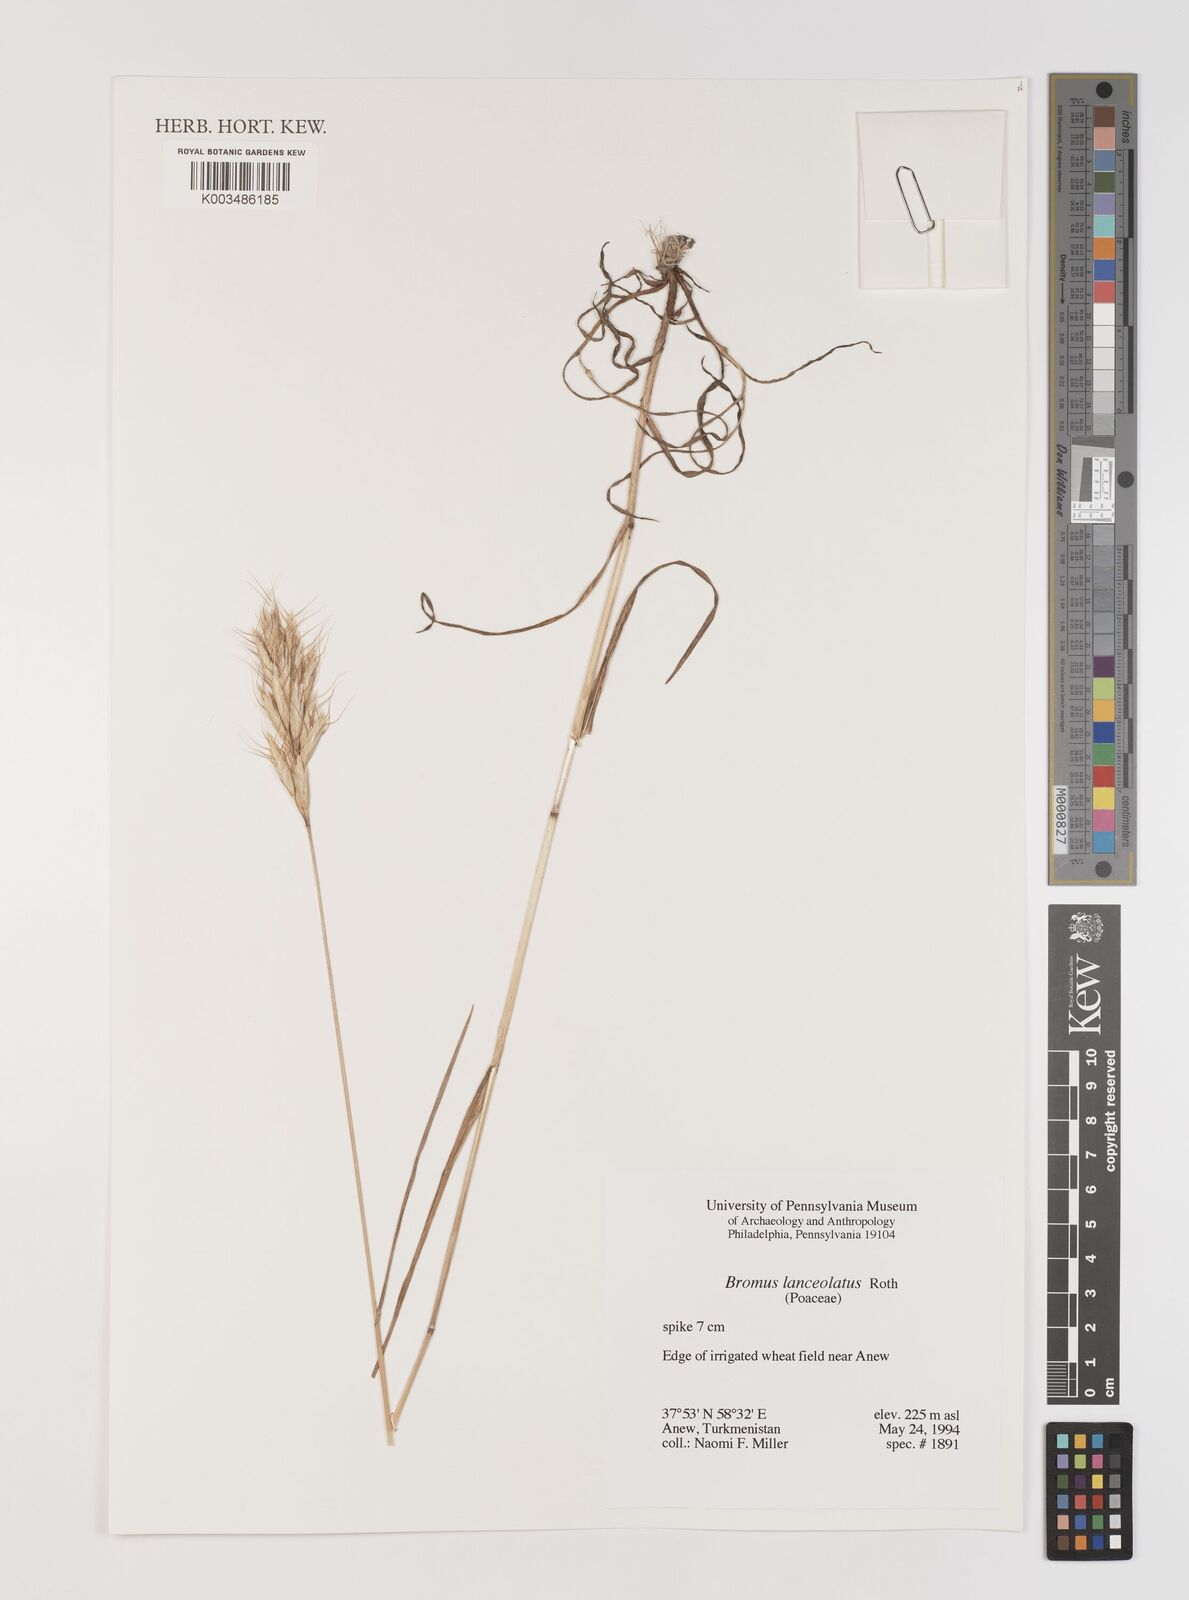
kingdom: Plantae
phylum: Tracheophyta
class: Liliopsida
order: Poales
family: Poaceae
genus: Bromus
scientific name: Bromus lanceolatus
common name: Mediterranean brome
